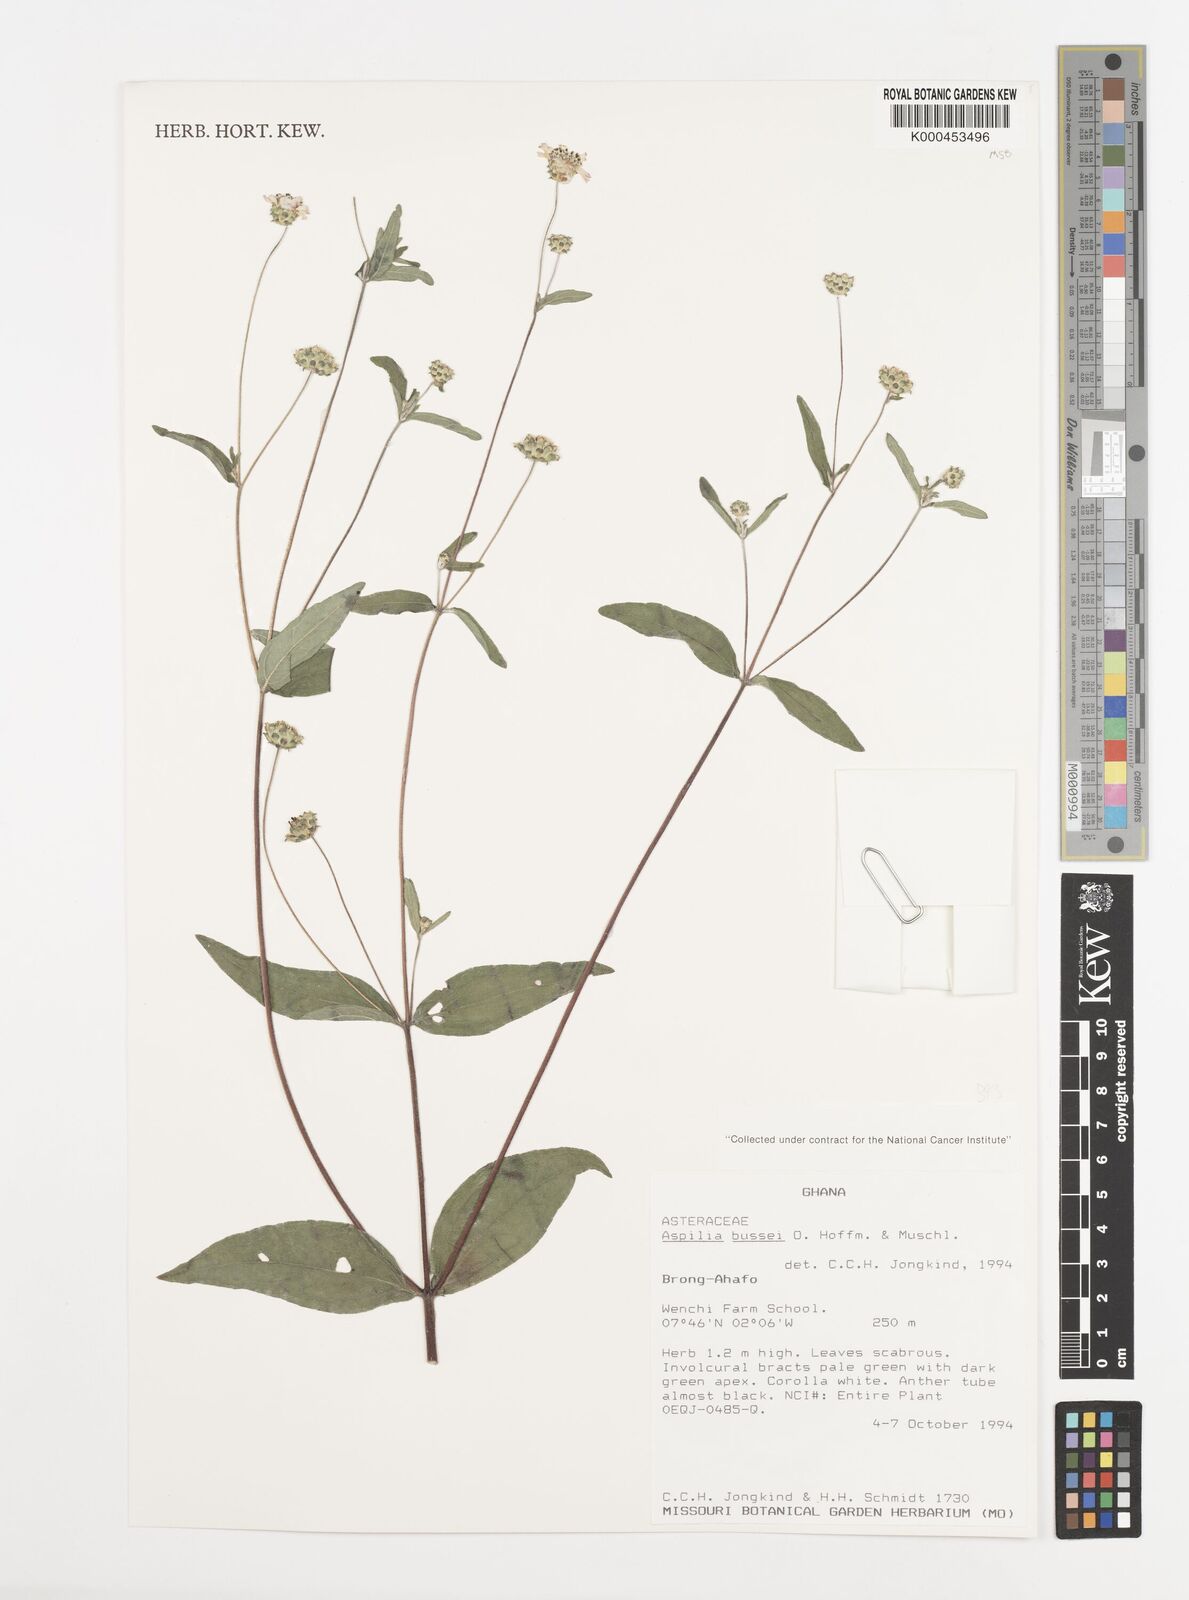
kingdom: Plantae
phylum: Tracheophyta
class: Magnoliopsida
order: Asterales
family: Asteraceae
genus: Aspilia
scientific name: Aspilia bussei
